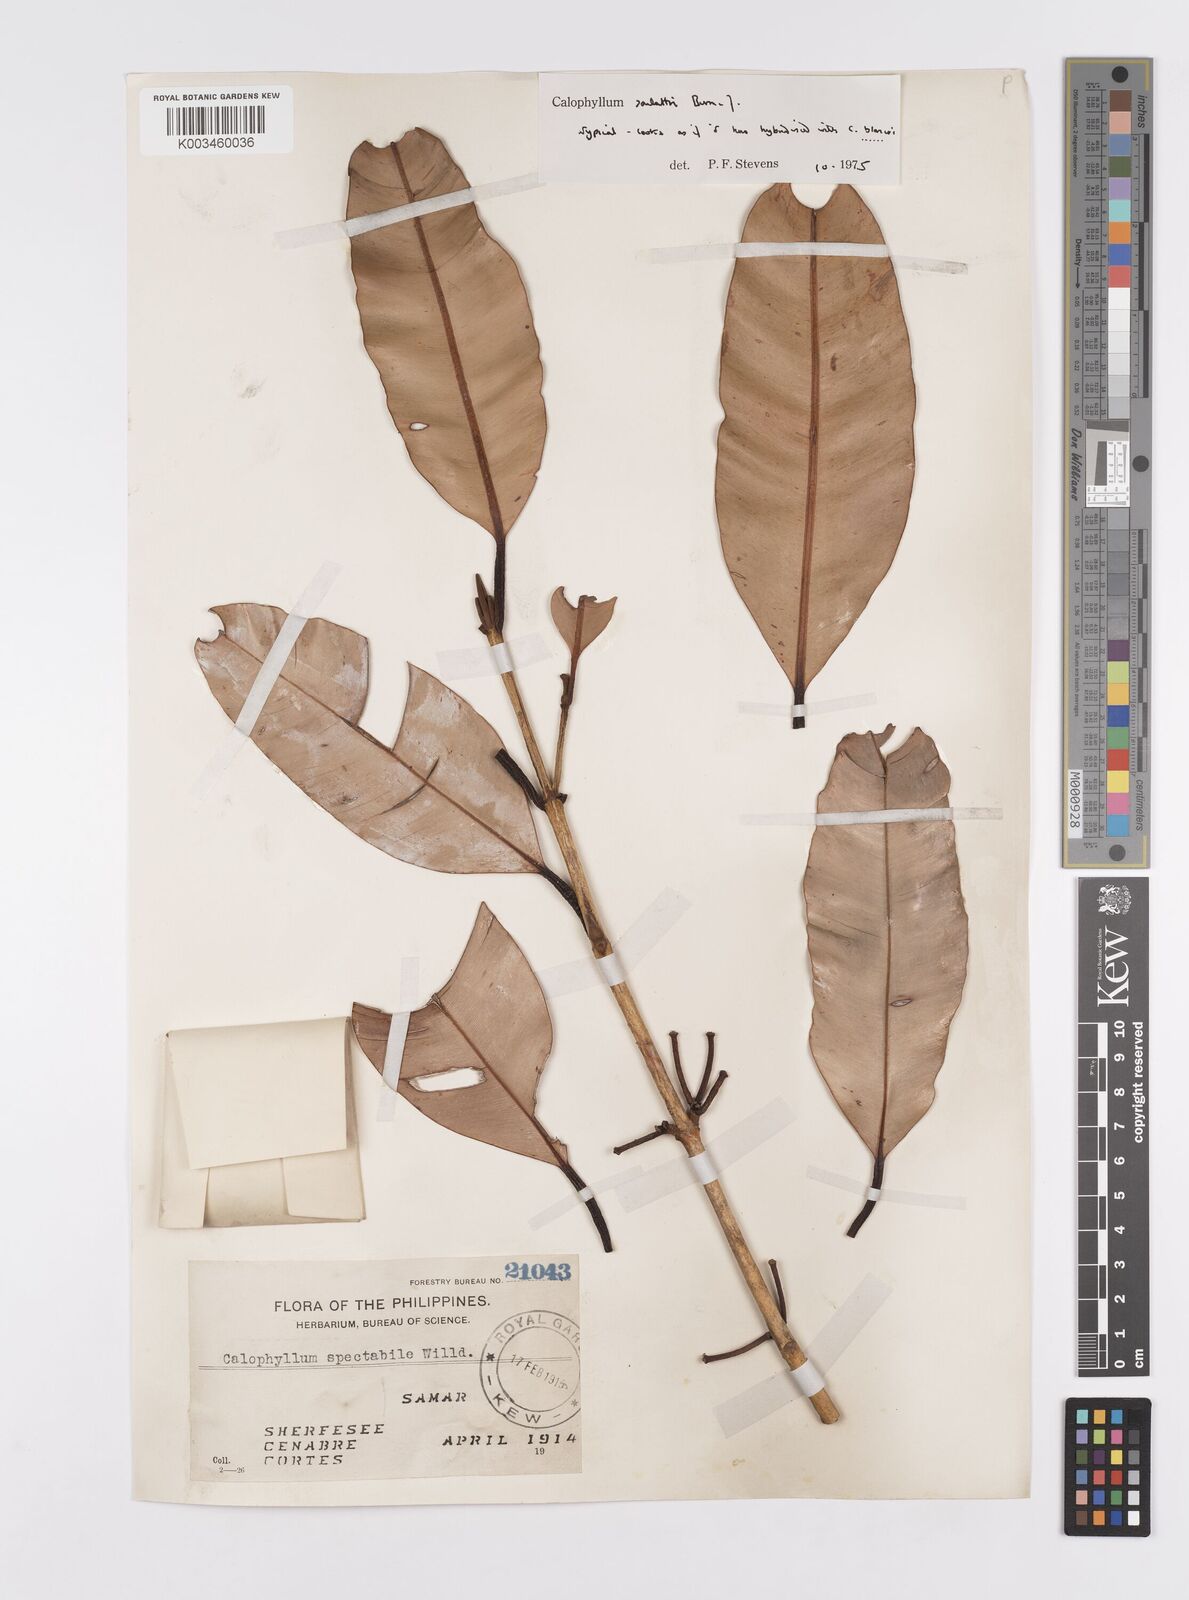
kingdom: Plantae
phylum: Tracheophyta
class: Magnoliopsida
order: Malpighiales
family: Calophyllaceae
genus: Calophyllum
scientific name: Calophyllum soulattri
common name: Bitangoor boonot
